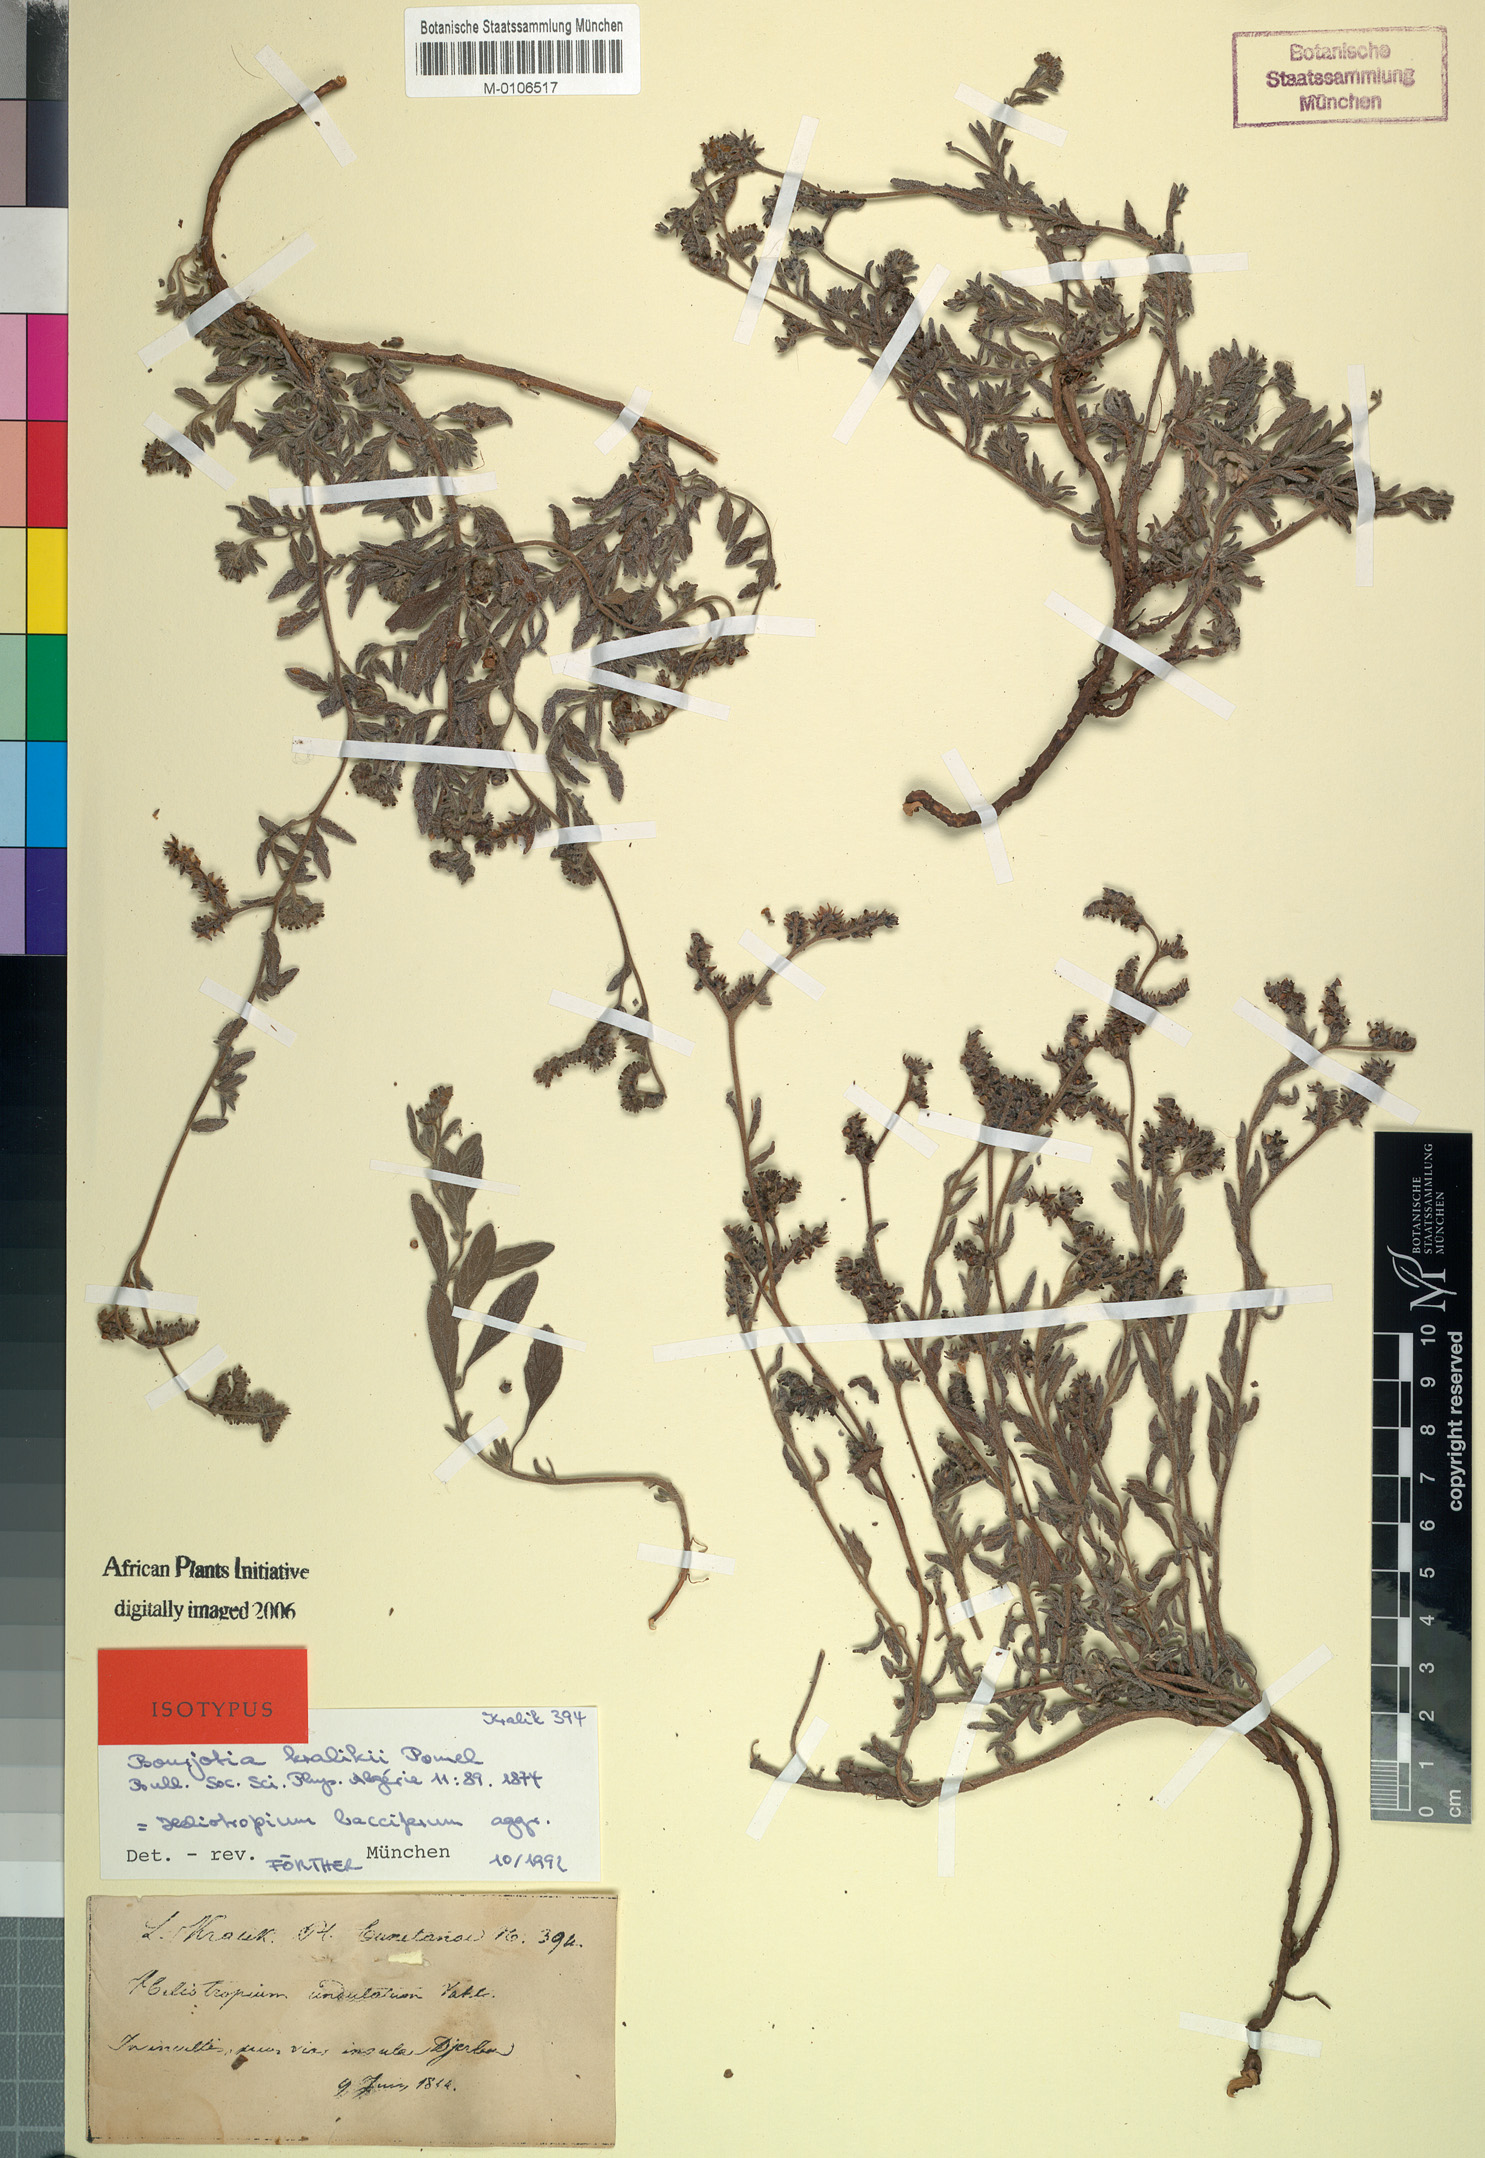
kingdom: Plantae
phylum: Tracheophyta
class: Magnoliopsida
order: Boraginales
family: Heliotropiaceae
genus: Heliotropium
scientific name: Heliotropium bacciferum
